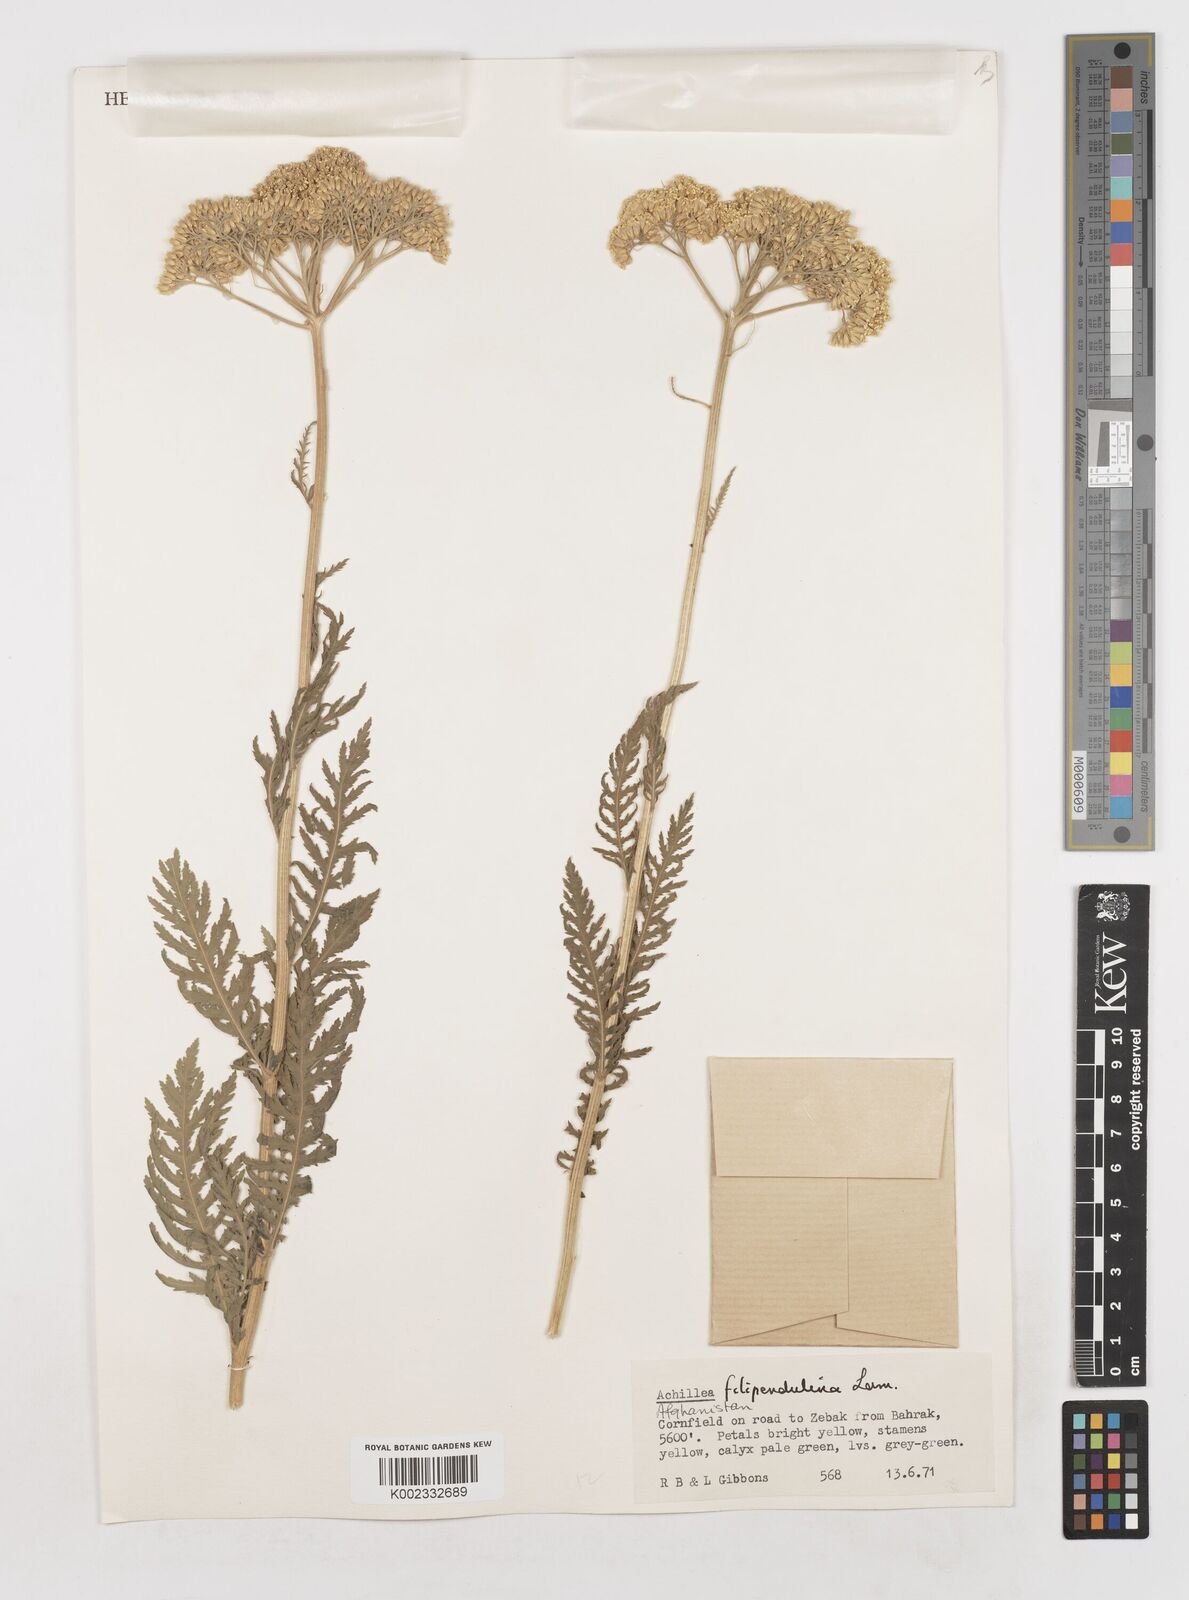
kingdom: Plantae
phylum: Tracheophyta
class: Magnoliopsida
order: Asterales
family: Asteraceae
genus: Achillea
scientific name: Achillea filipendulina
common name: Fernleaf yarrow
